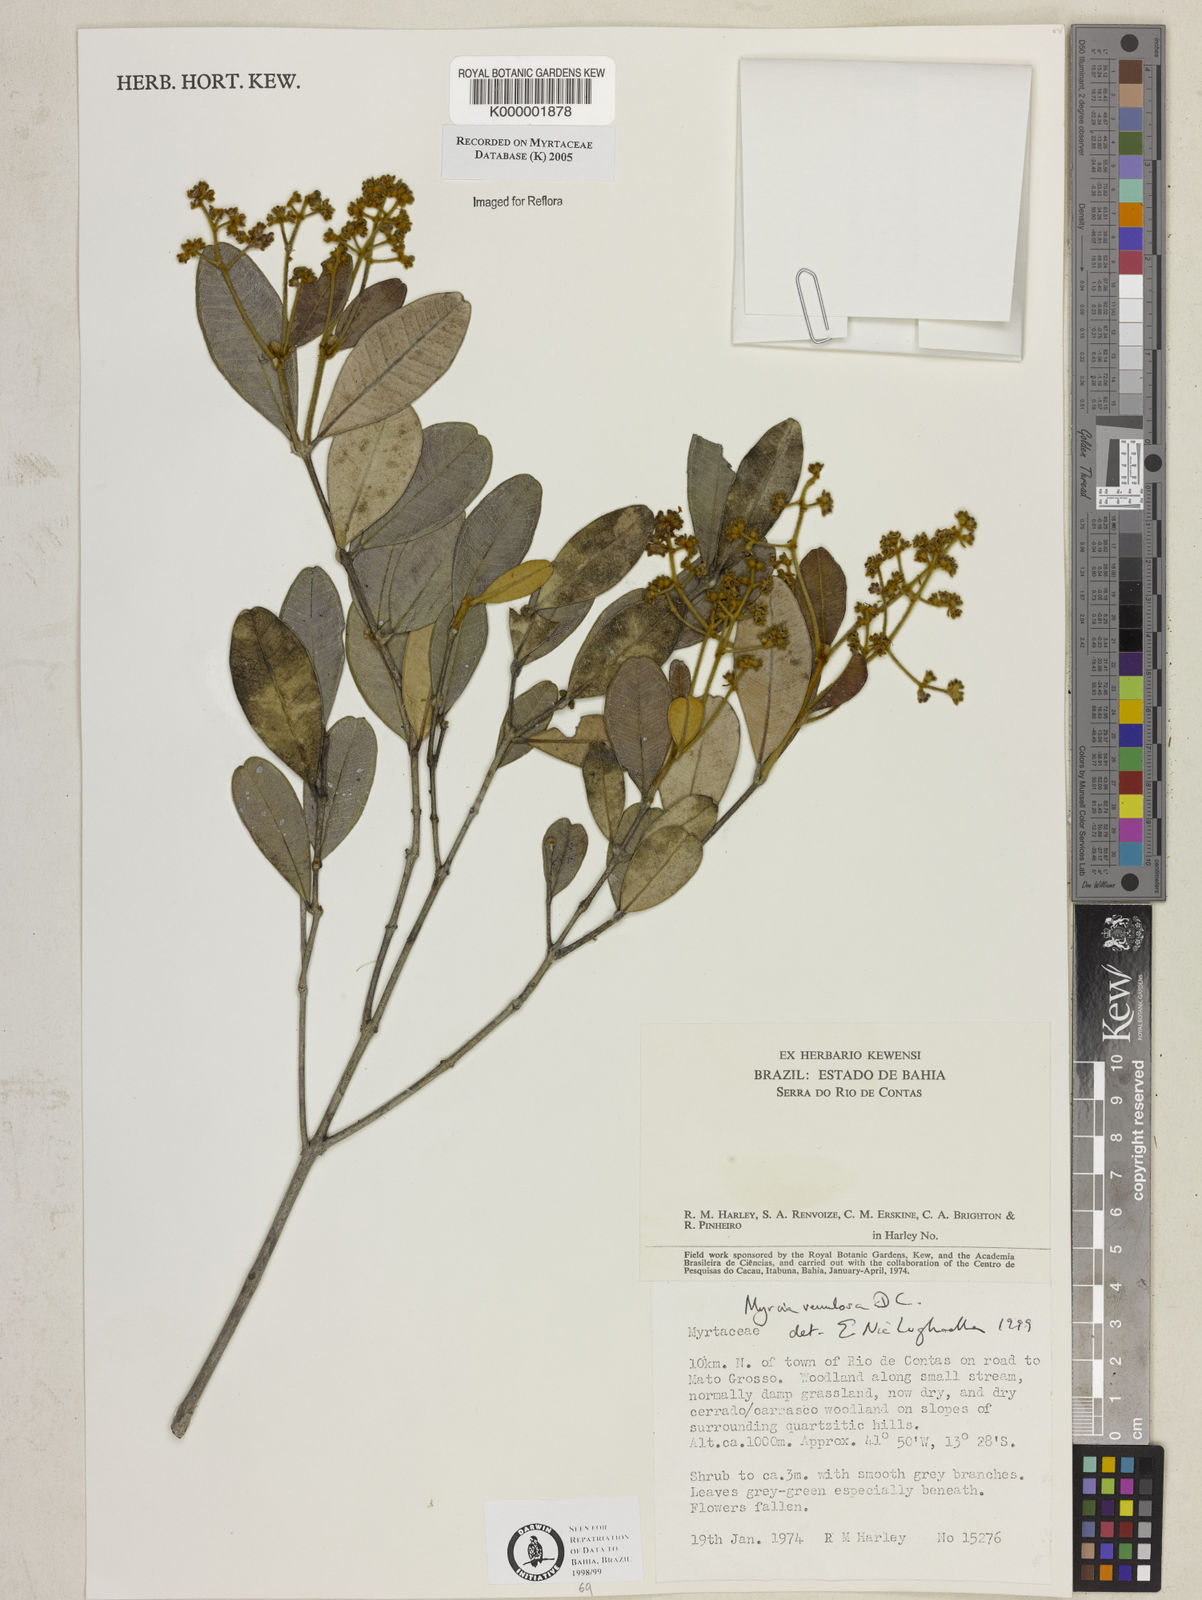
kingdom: Plantae
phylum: Tracheophyta
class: Magnoliopsida
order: Myrtales
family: Myrtaceae
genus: Myrcia
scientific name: Myrcia venulosa
